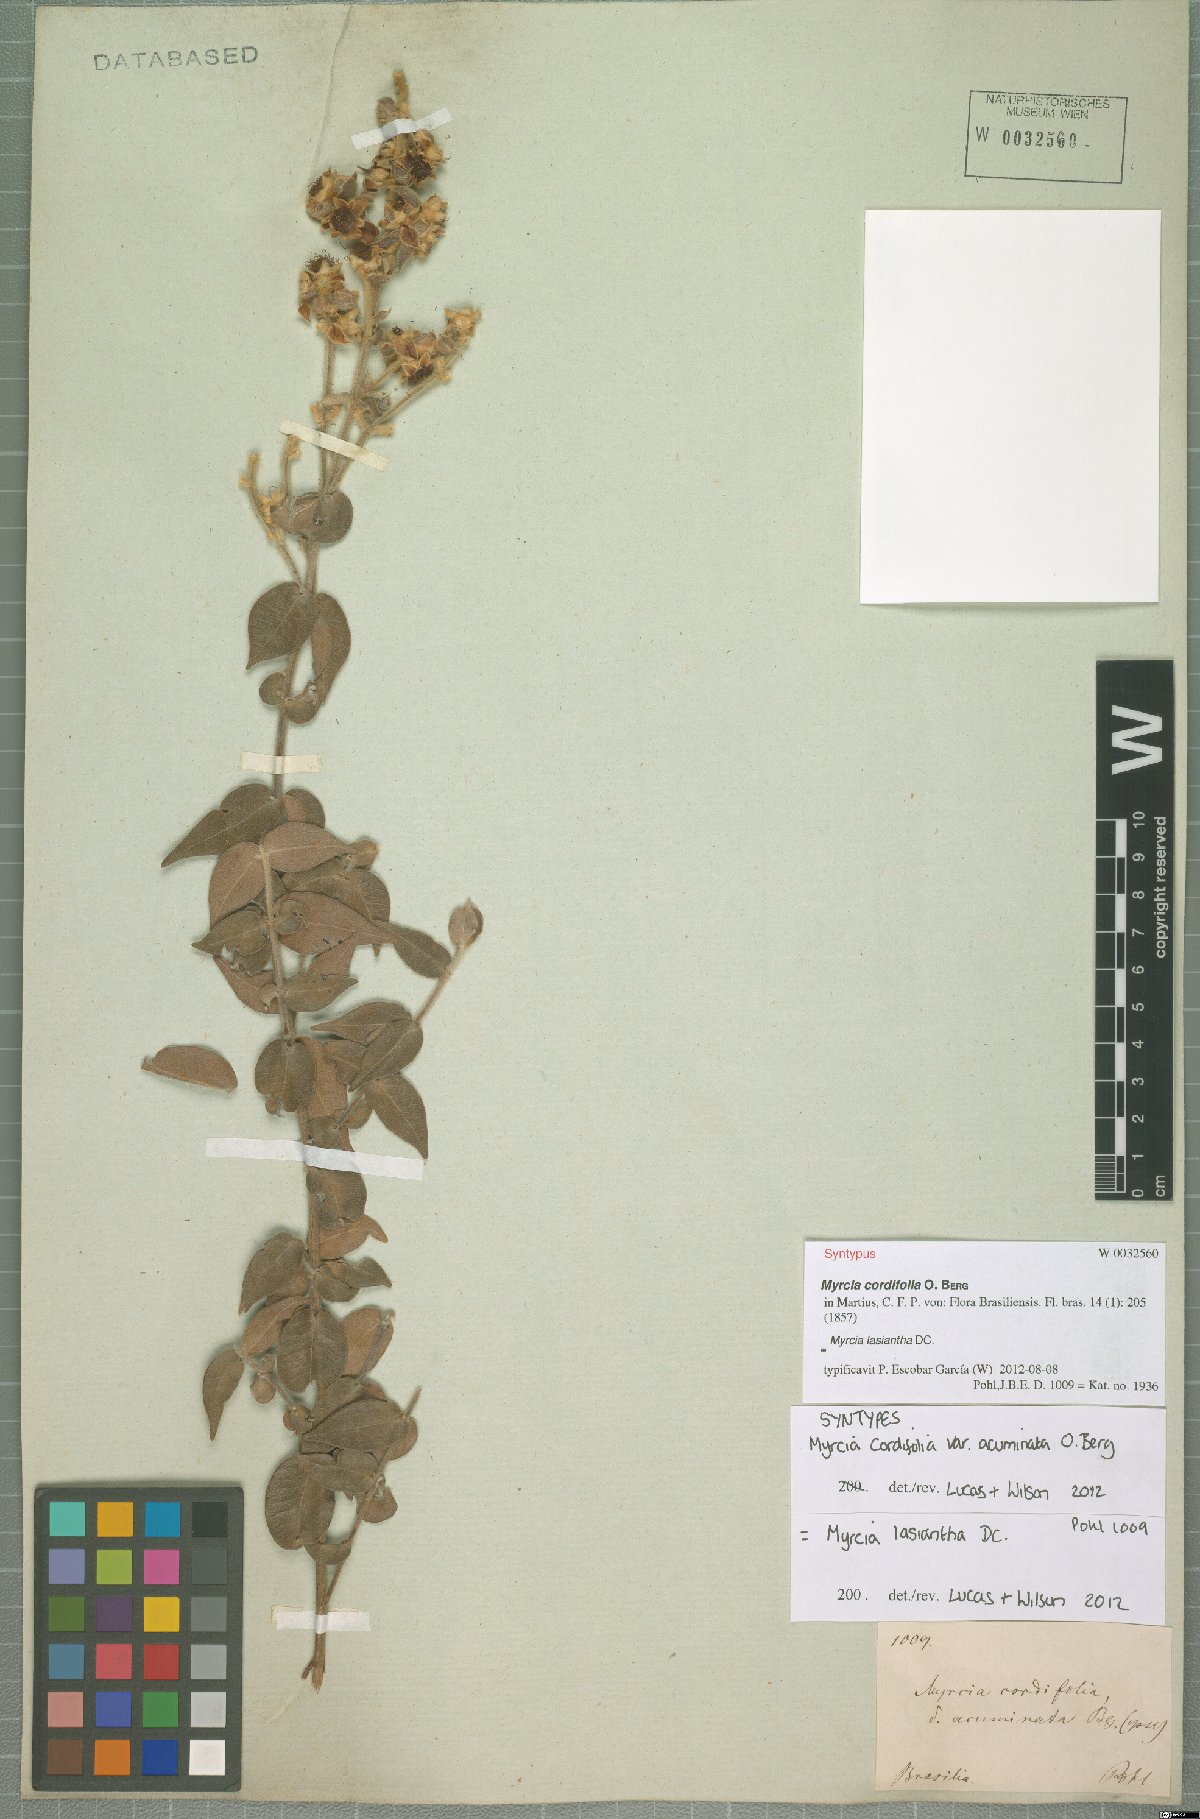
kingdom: Plantae
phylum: Tracheophyta
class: Magnoliopsida
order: Myrtales
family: Myrtaceae
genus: Myrcia
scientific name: Myrcia lasiantha
